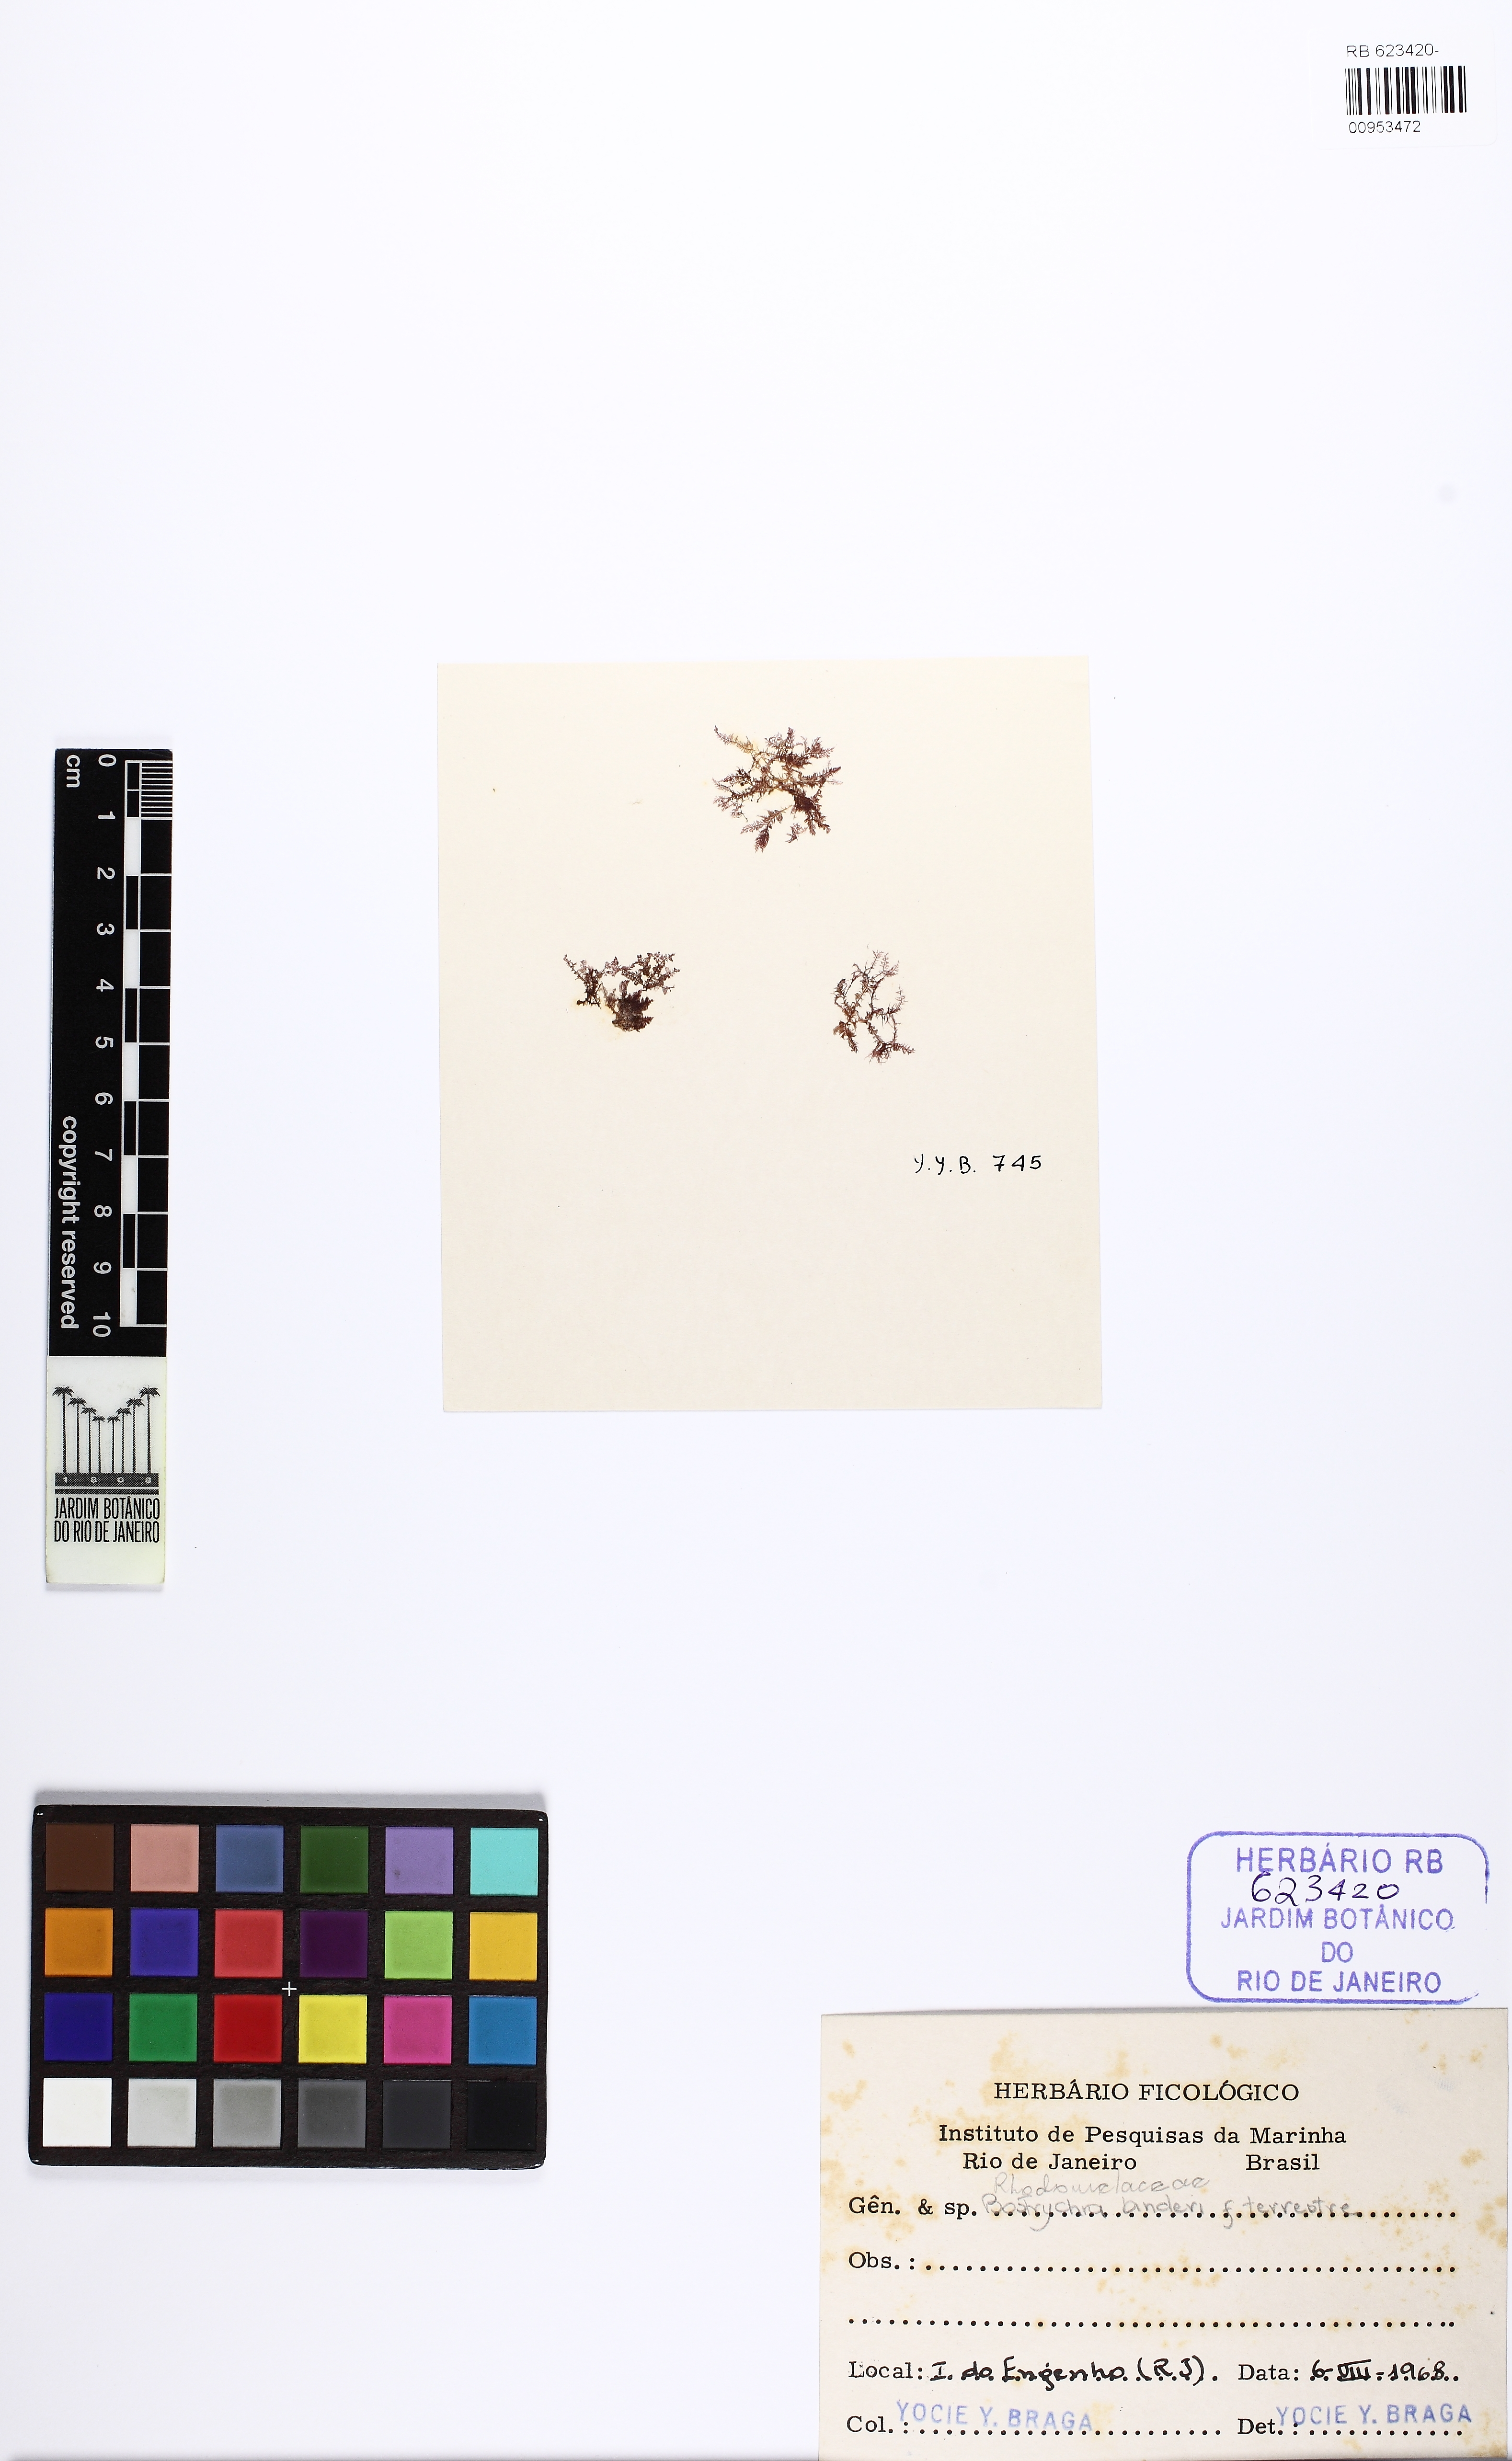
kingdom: Plantae
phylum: Rhodophyta
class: Florideophyceae
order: Ceramiales
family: Rhodomelaceae
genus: Bostrychia
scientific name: Bostrychia tenella
